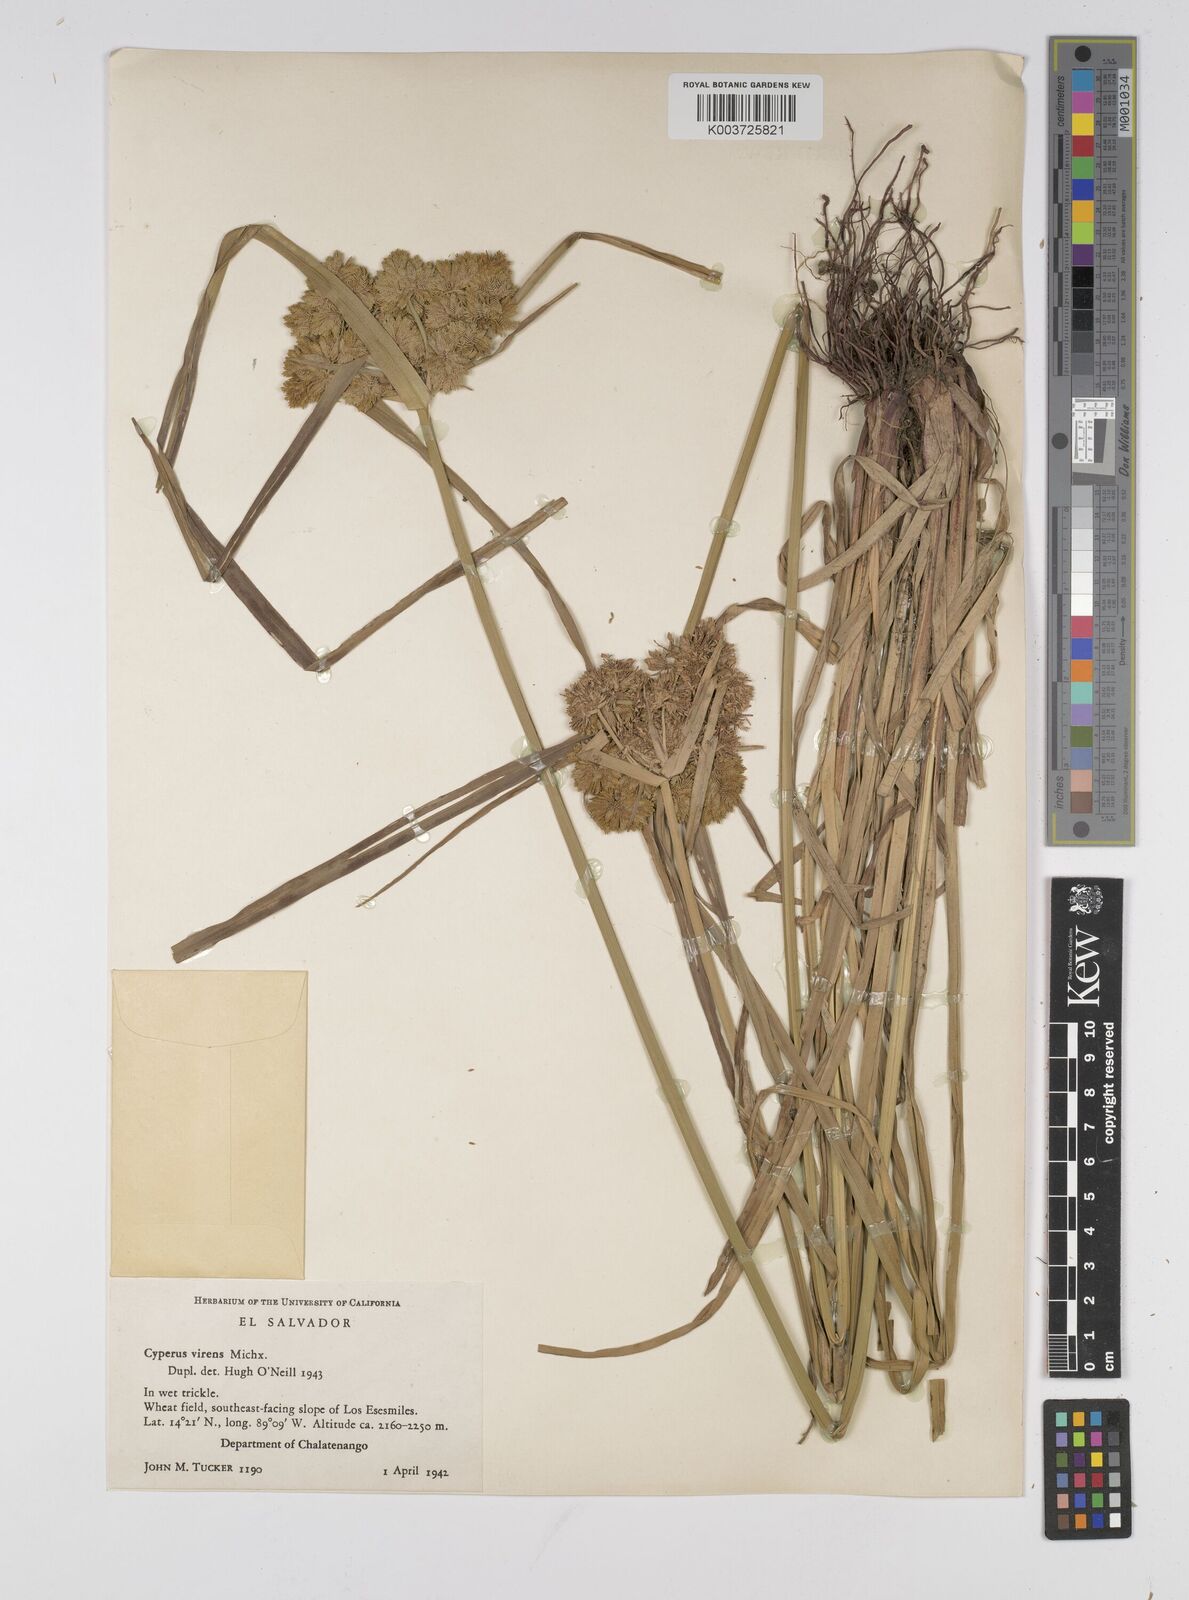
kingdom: Plantae
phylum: Tracheophyta
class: Liliopsida
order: Poales
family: Cyperaceae
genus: Cyperus
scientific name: Cyperus virens
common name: Green flatsedge
